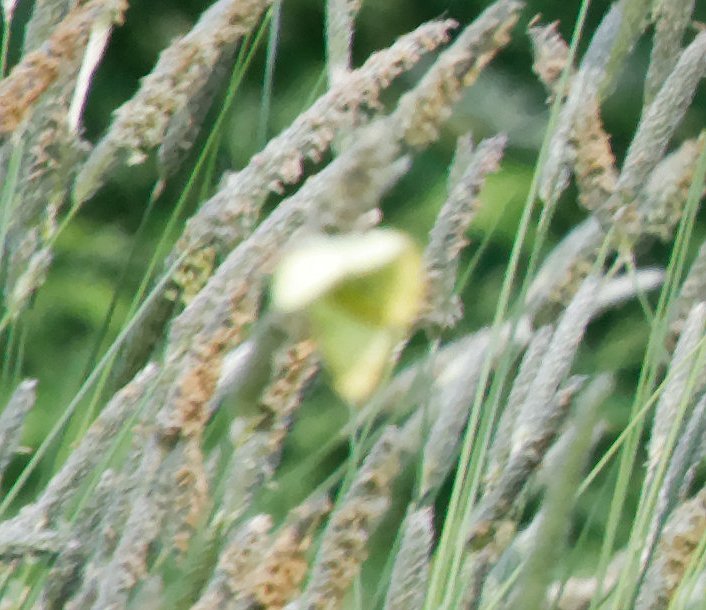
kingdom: Animalia
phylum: Arthropoda
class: Insecta
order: Lepidoptera
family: Pieridae
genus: Colias
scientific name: Colias philodice
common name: Clouded Sulphur
